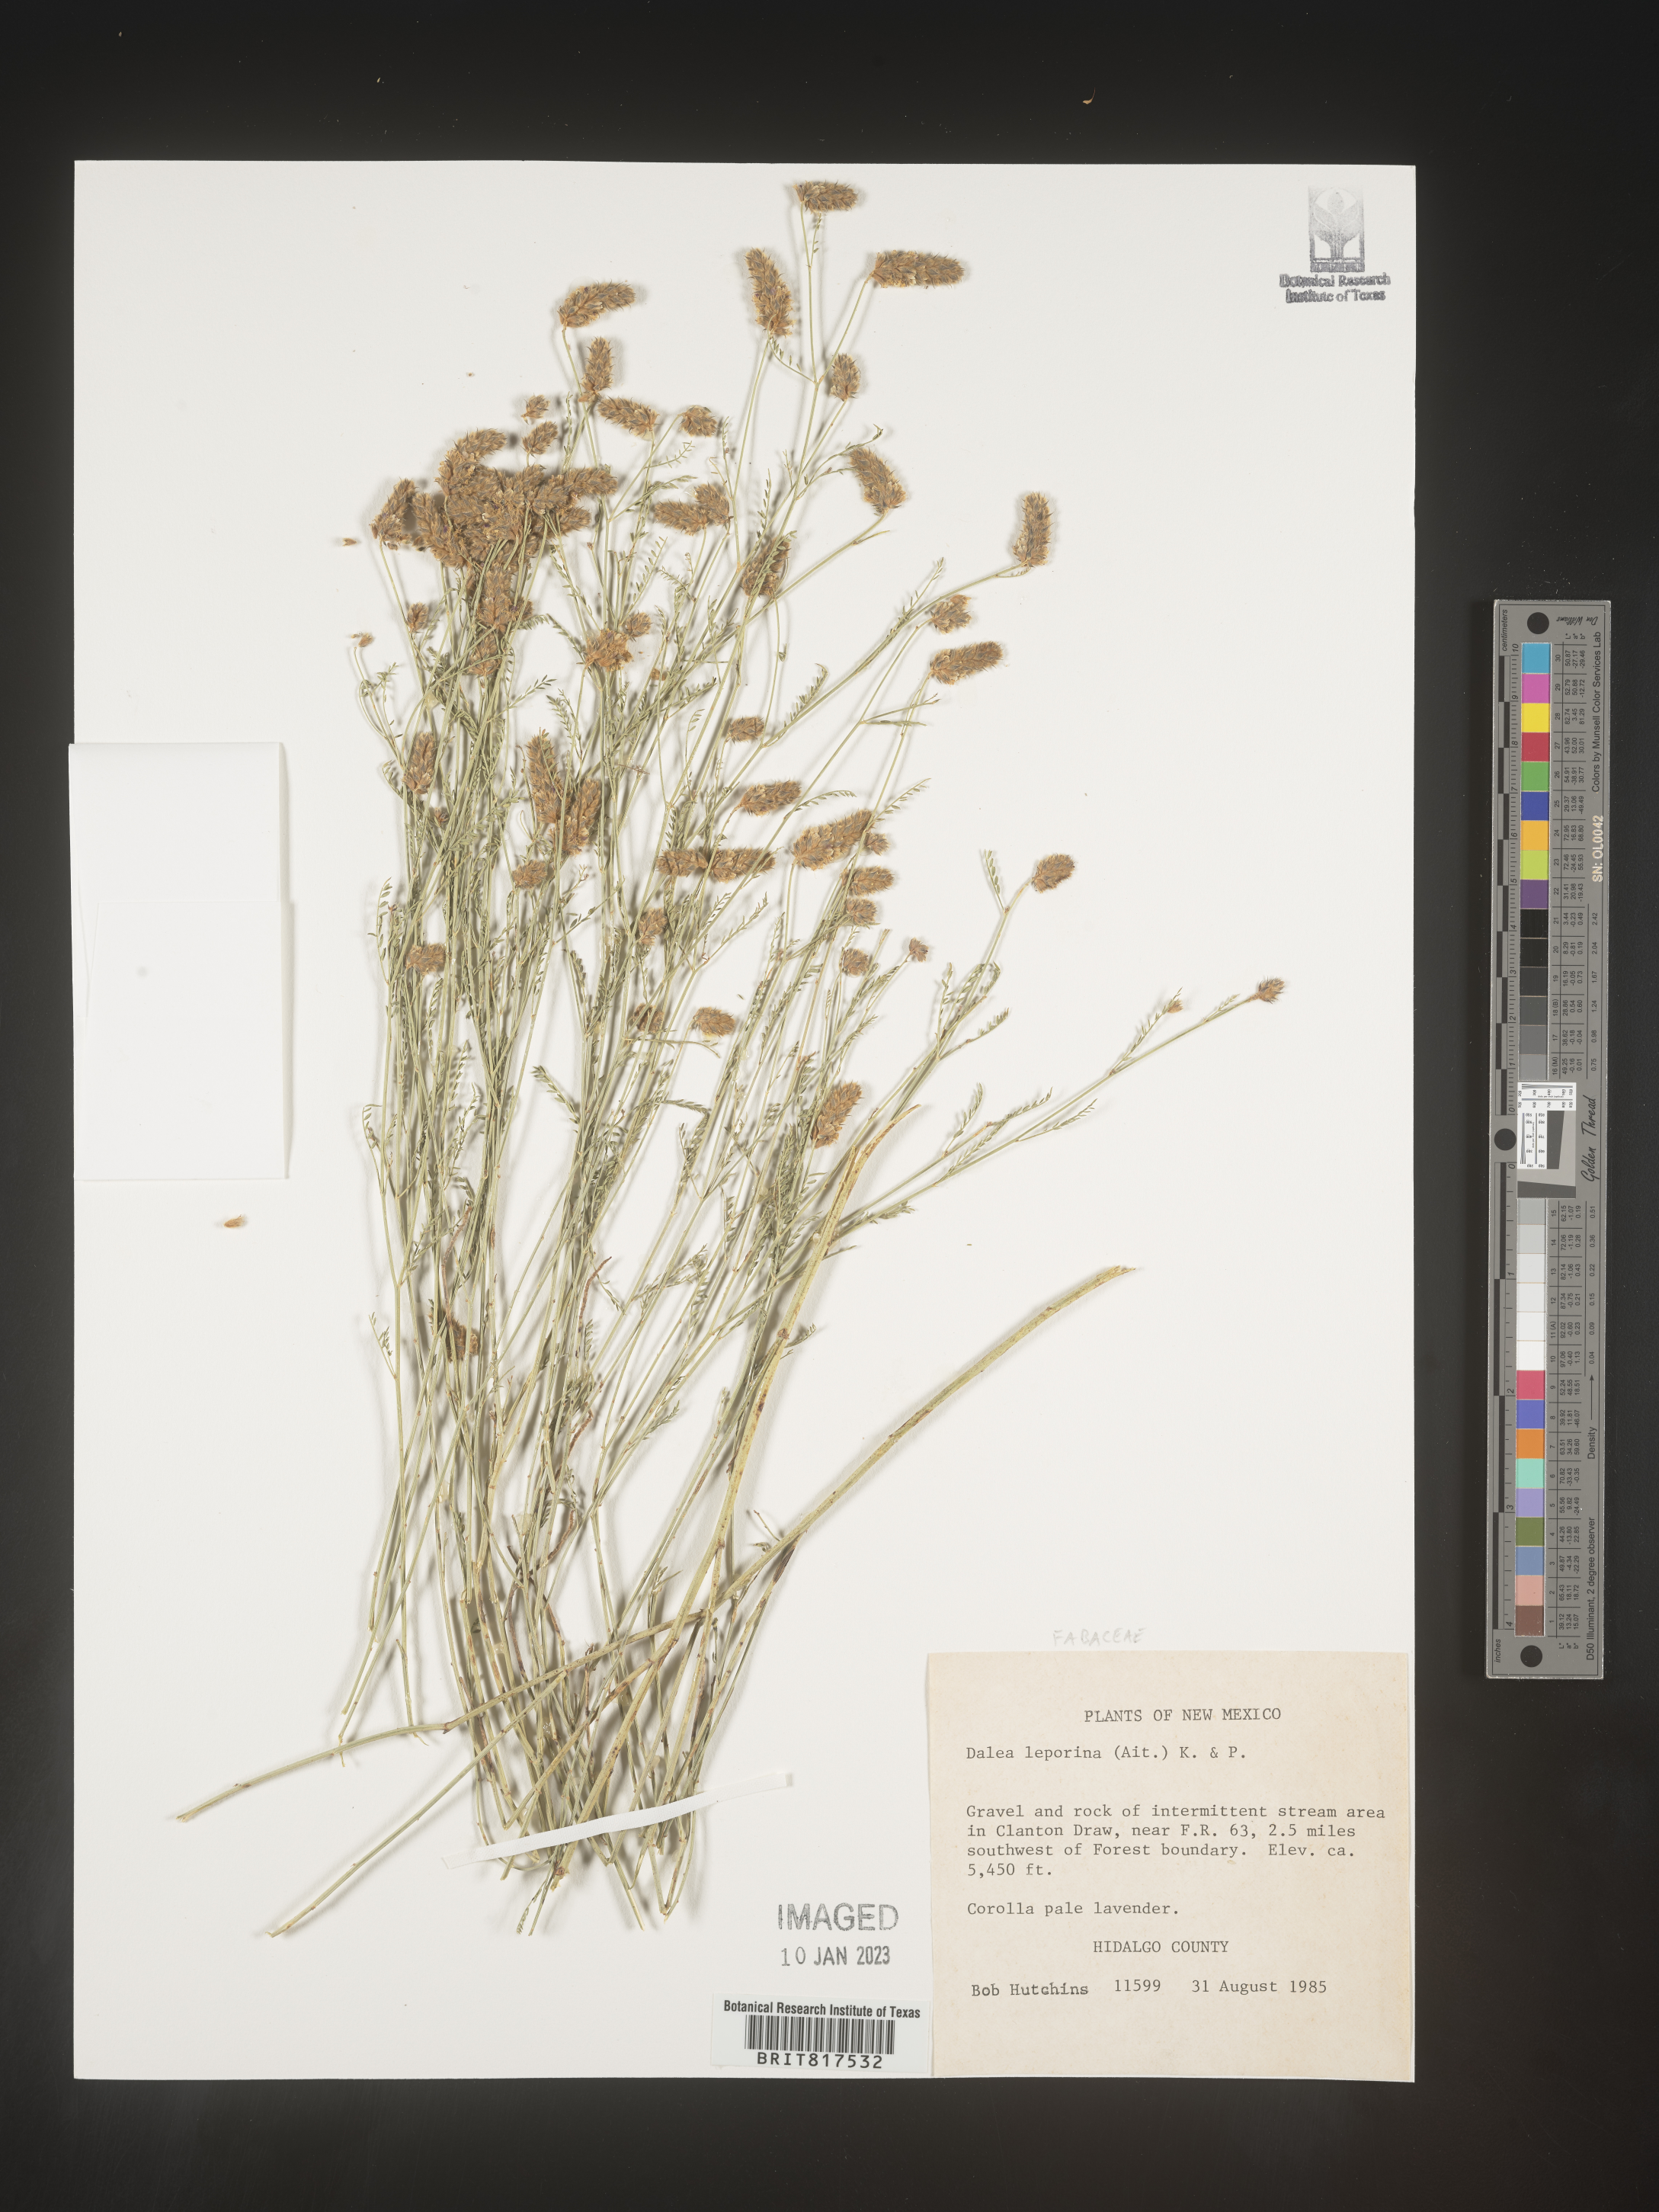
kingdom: Plantae
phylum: Tracheophyta
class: Magnoliopsida
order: Fabales
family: Fabaceae
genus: Dalea
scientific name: Dalea leporina
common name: Foxtail dalea
